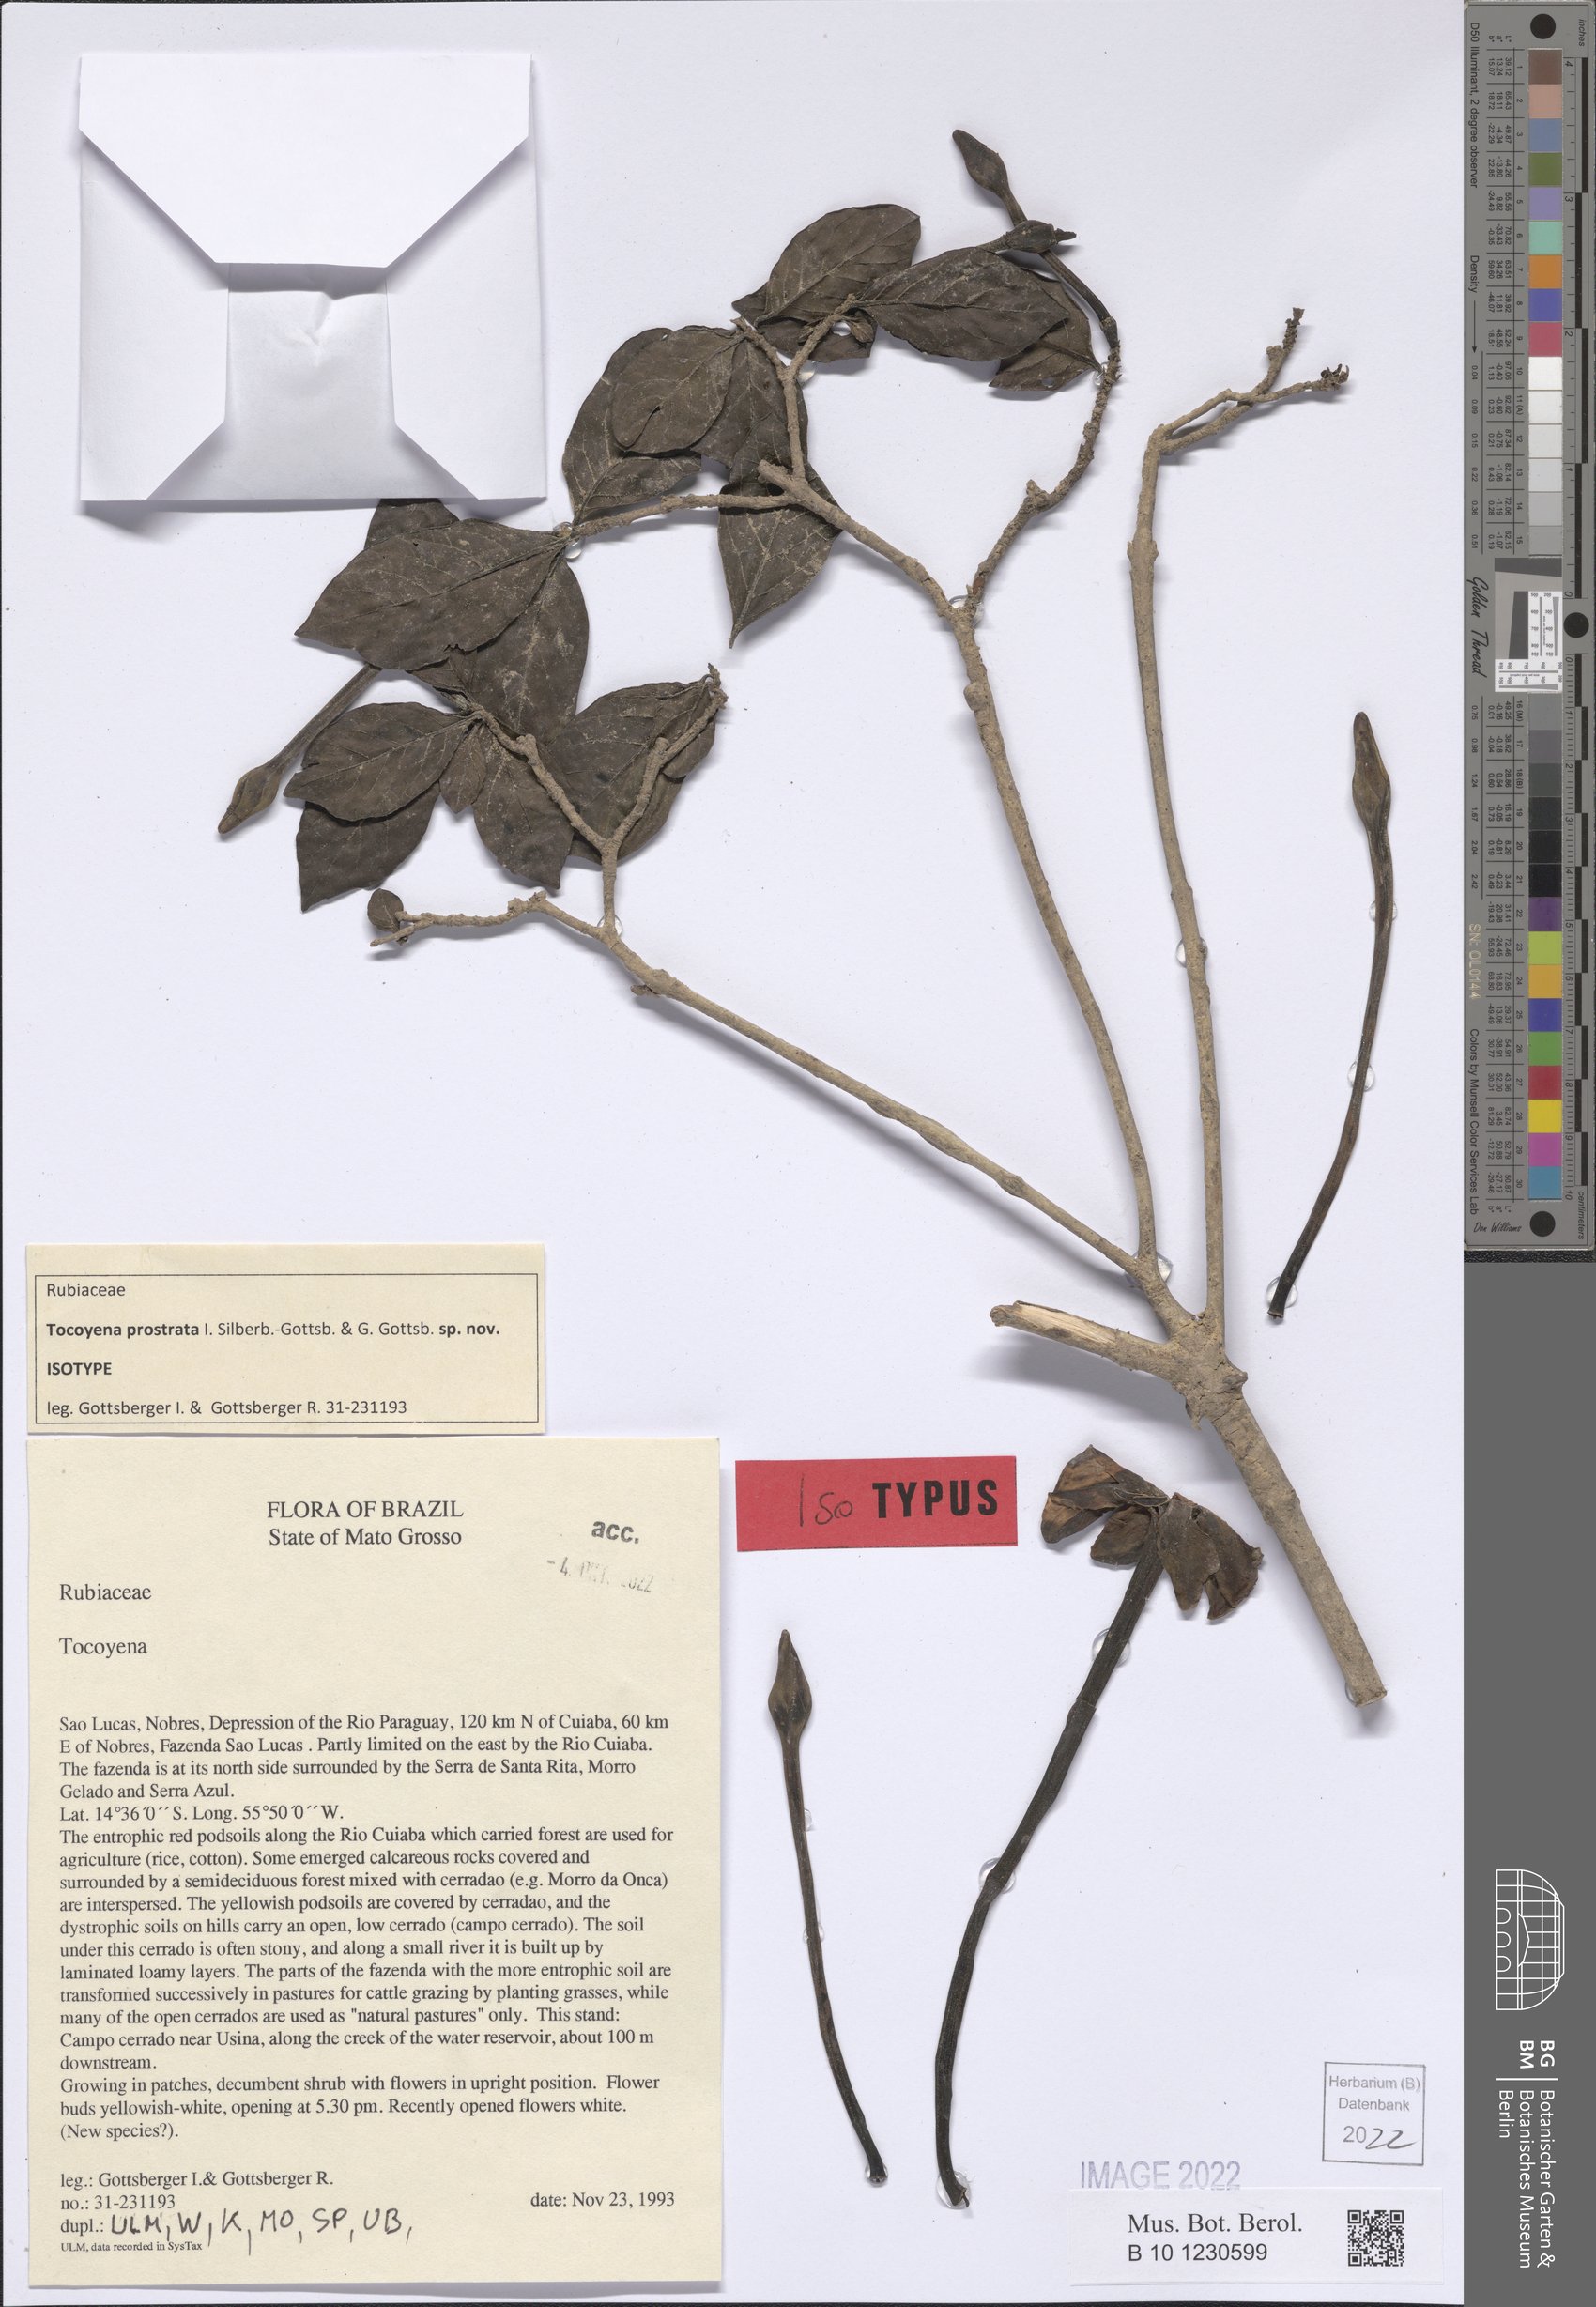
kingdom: Plantae
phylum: Tracheophyta
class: Magnoliopsida
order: Gentianales
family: Rubiaceae
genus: Tocoyena
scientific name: Tocoyena prostrata
